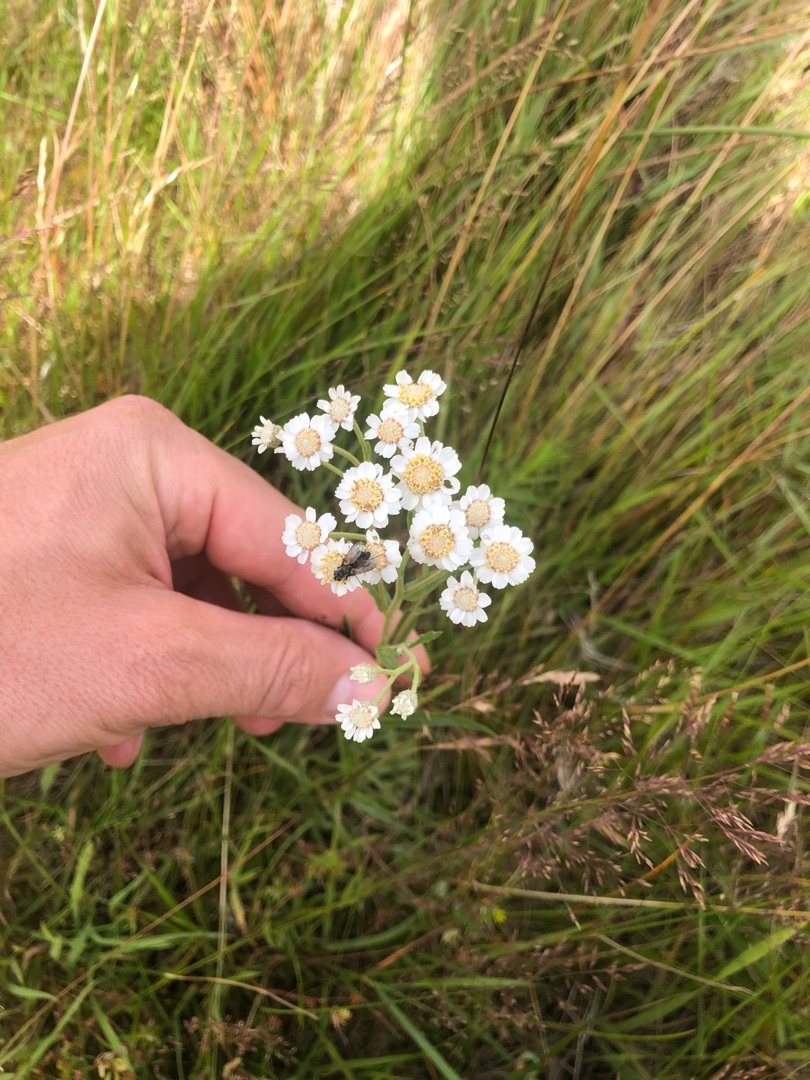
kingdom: Plantae
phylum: Tracheophyta
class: Magnoliopsida
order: Asterales
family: Asteraceae
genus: Achillea
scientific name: Achillea ptarmica
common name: Nyse-røllike
